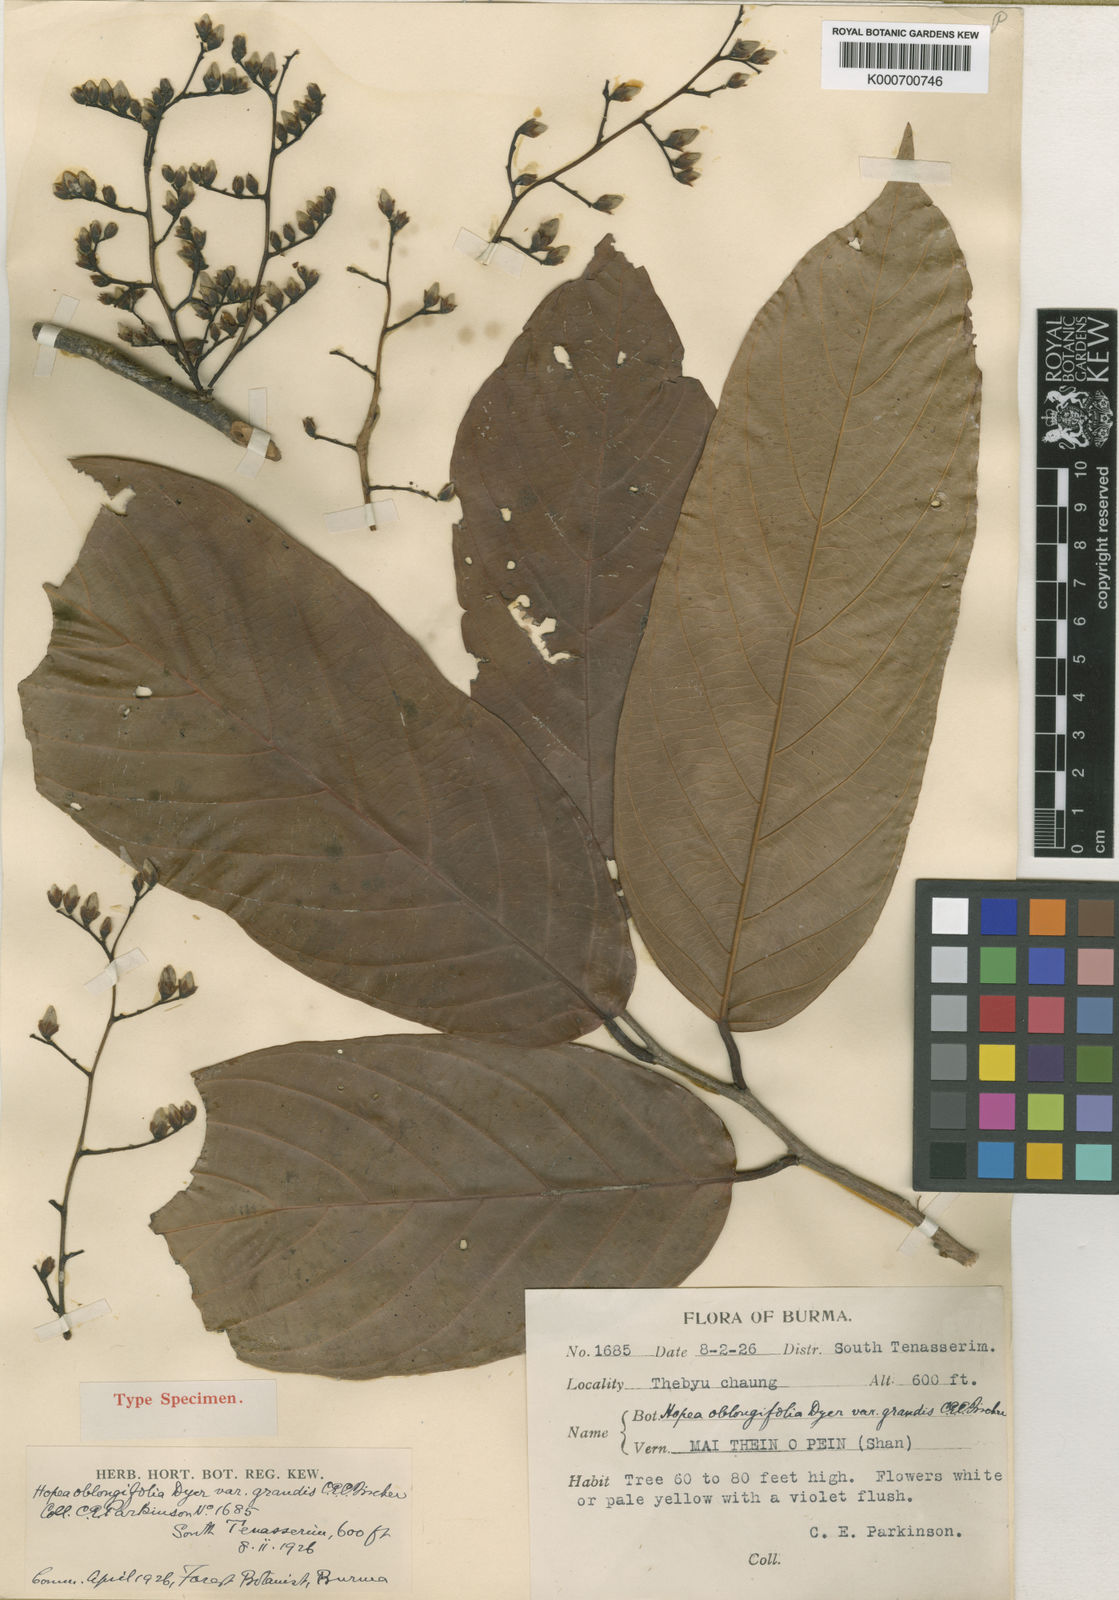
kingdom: Plantae
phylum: Tracheophyta
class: Magnoliopsida
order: Malvales
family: Dipterocarpaceae
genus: Hopea
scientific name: Hopea oblongifolia
